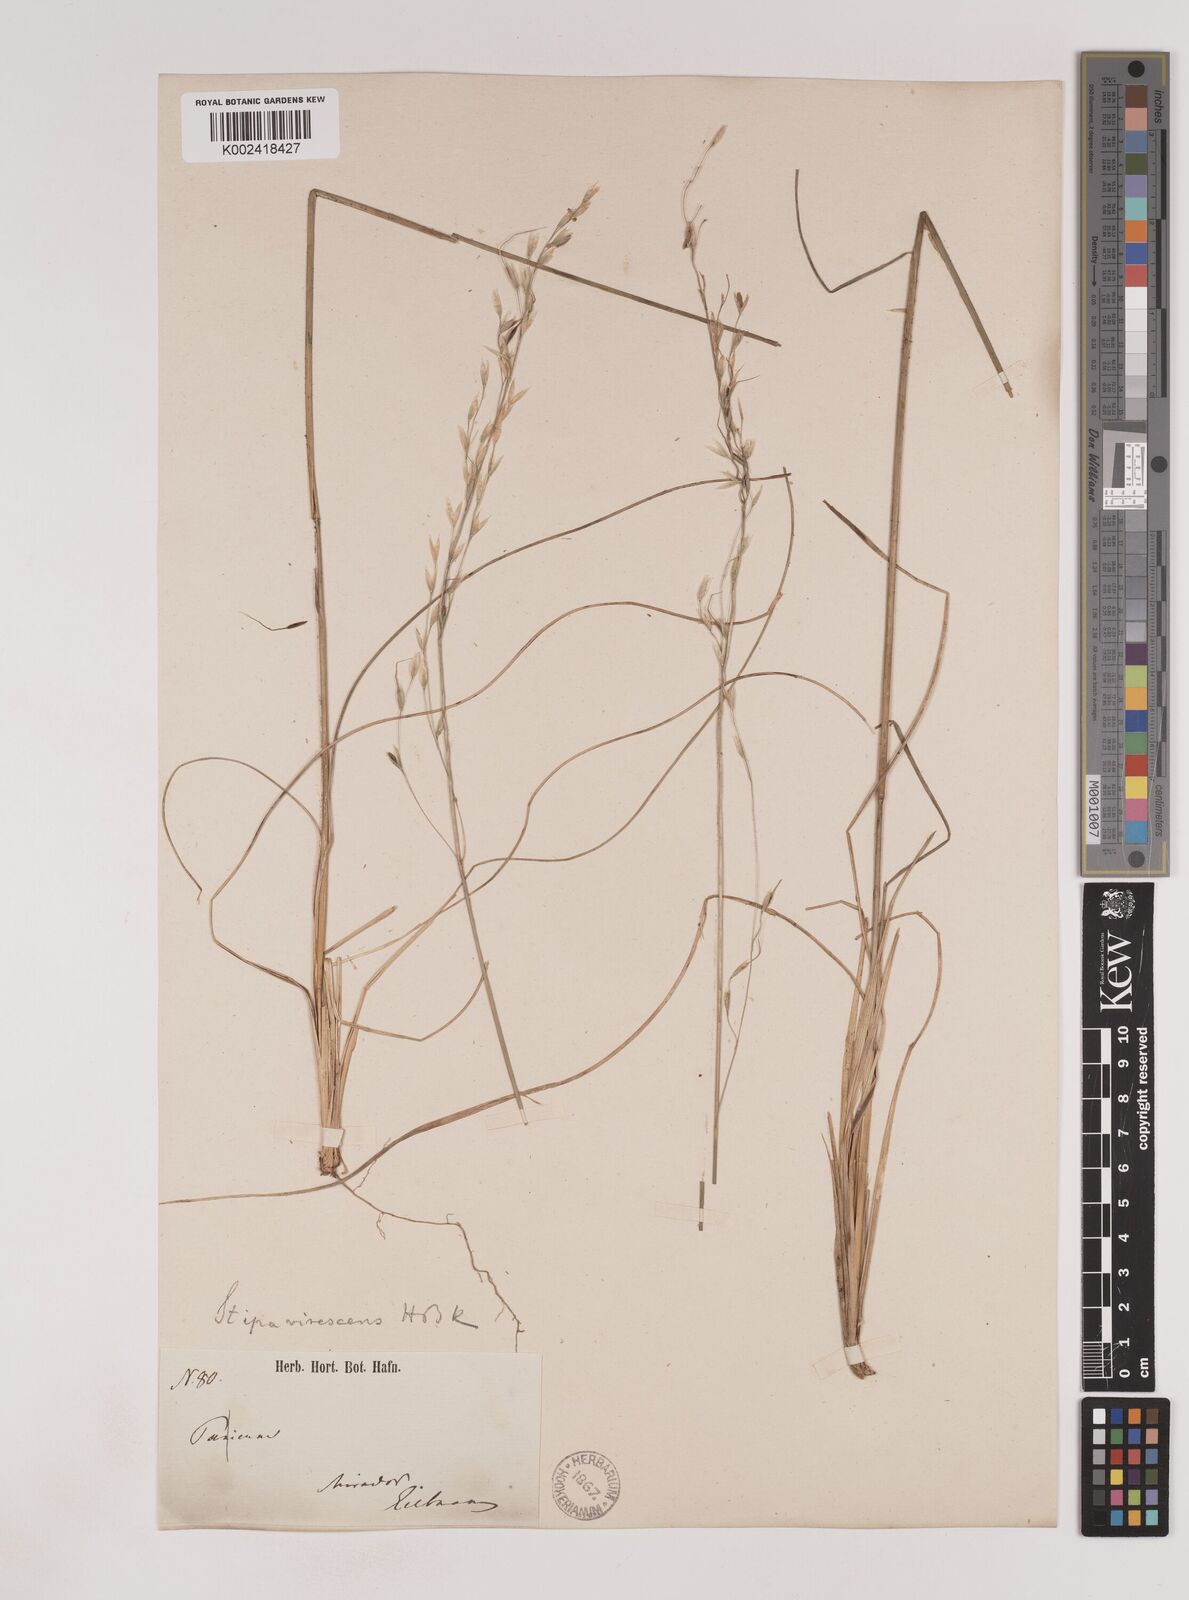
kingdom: Plantae
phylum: Tracheophyta
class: Liliopsida
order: Poales
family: Poaceae
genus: Piptochaetium
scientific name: Piptochaetium virescens
